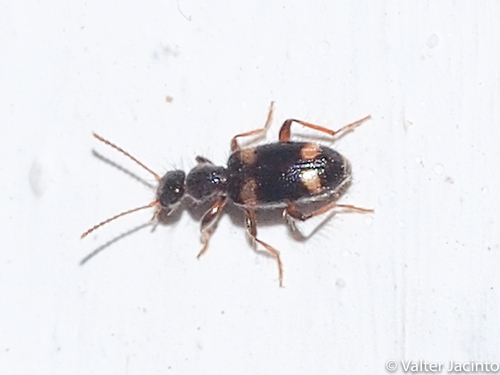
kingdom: Animalia
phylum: Arthropoda
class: Insecta
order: Coleoptera
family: Anthicidae
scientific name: Anthicidae
